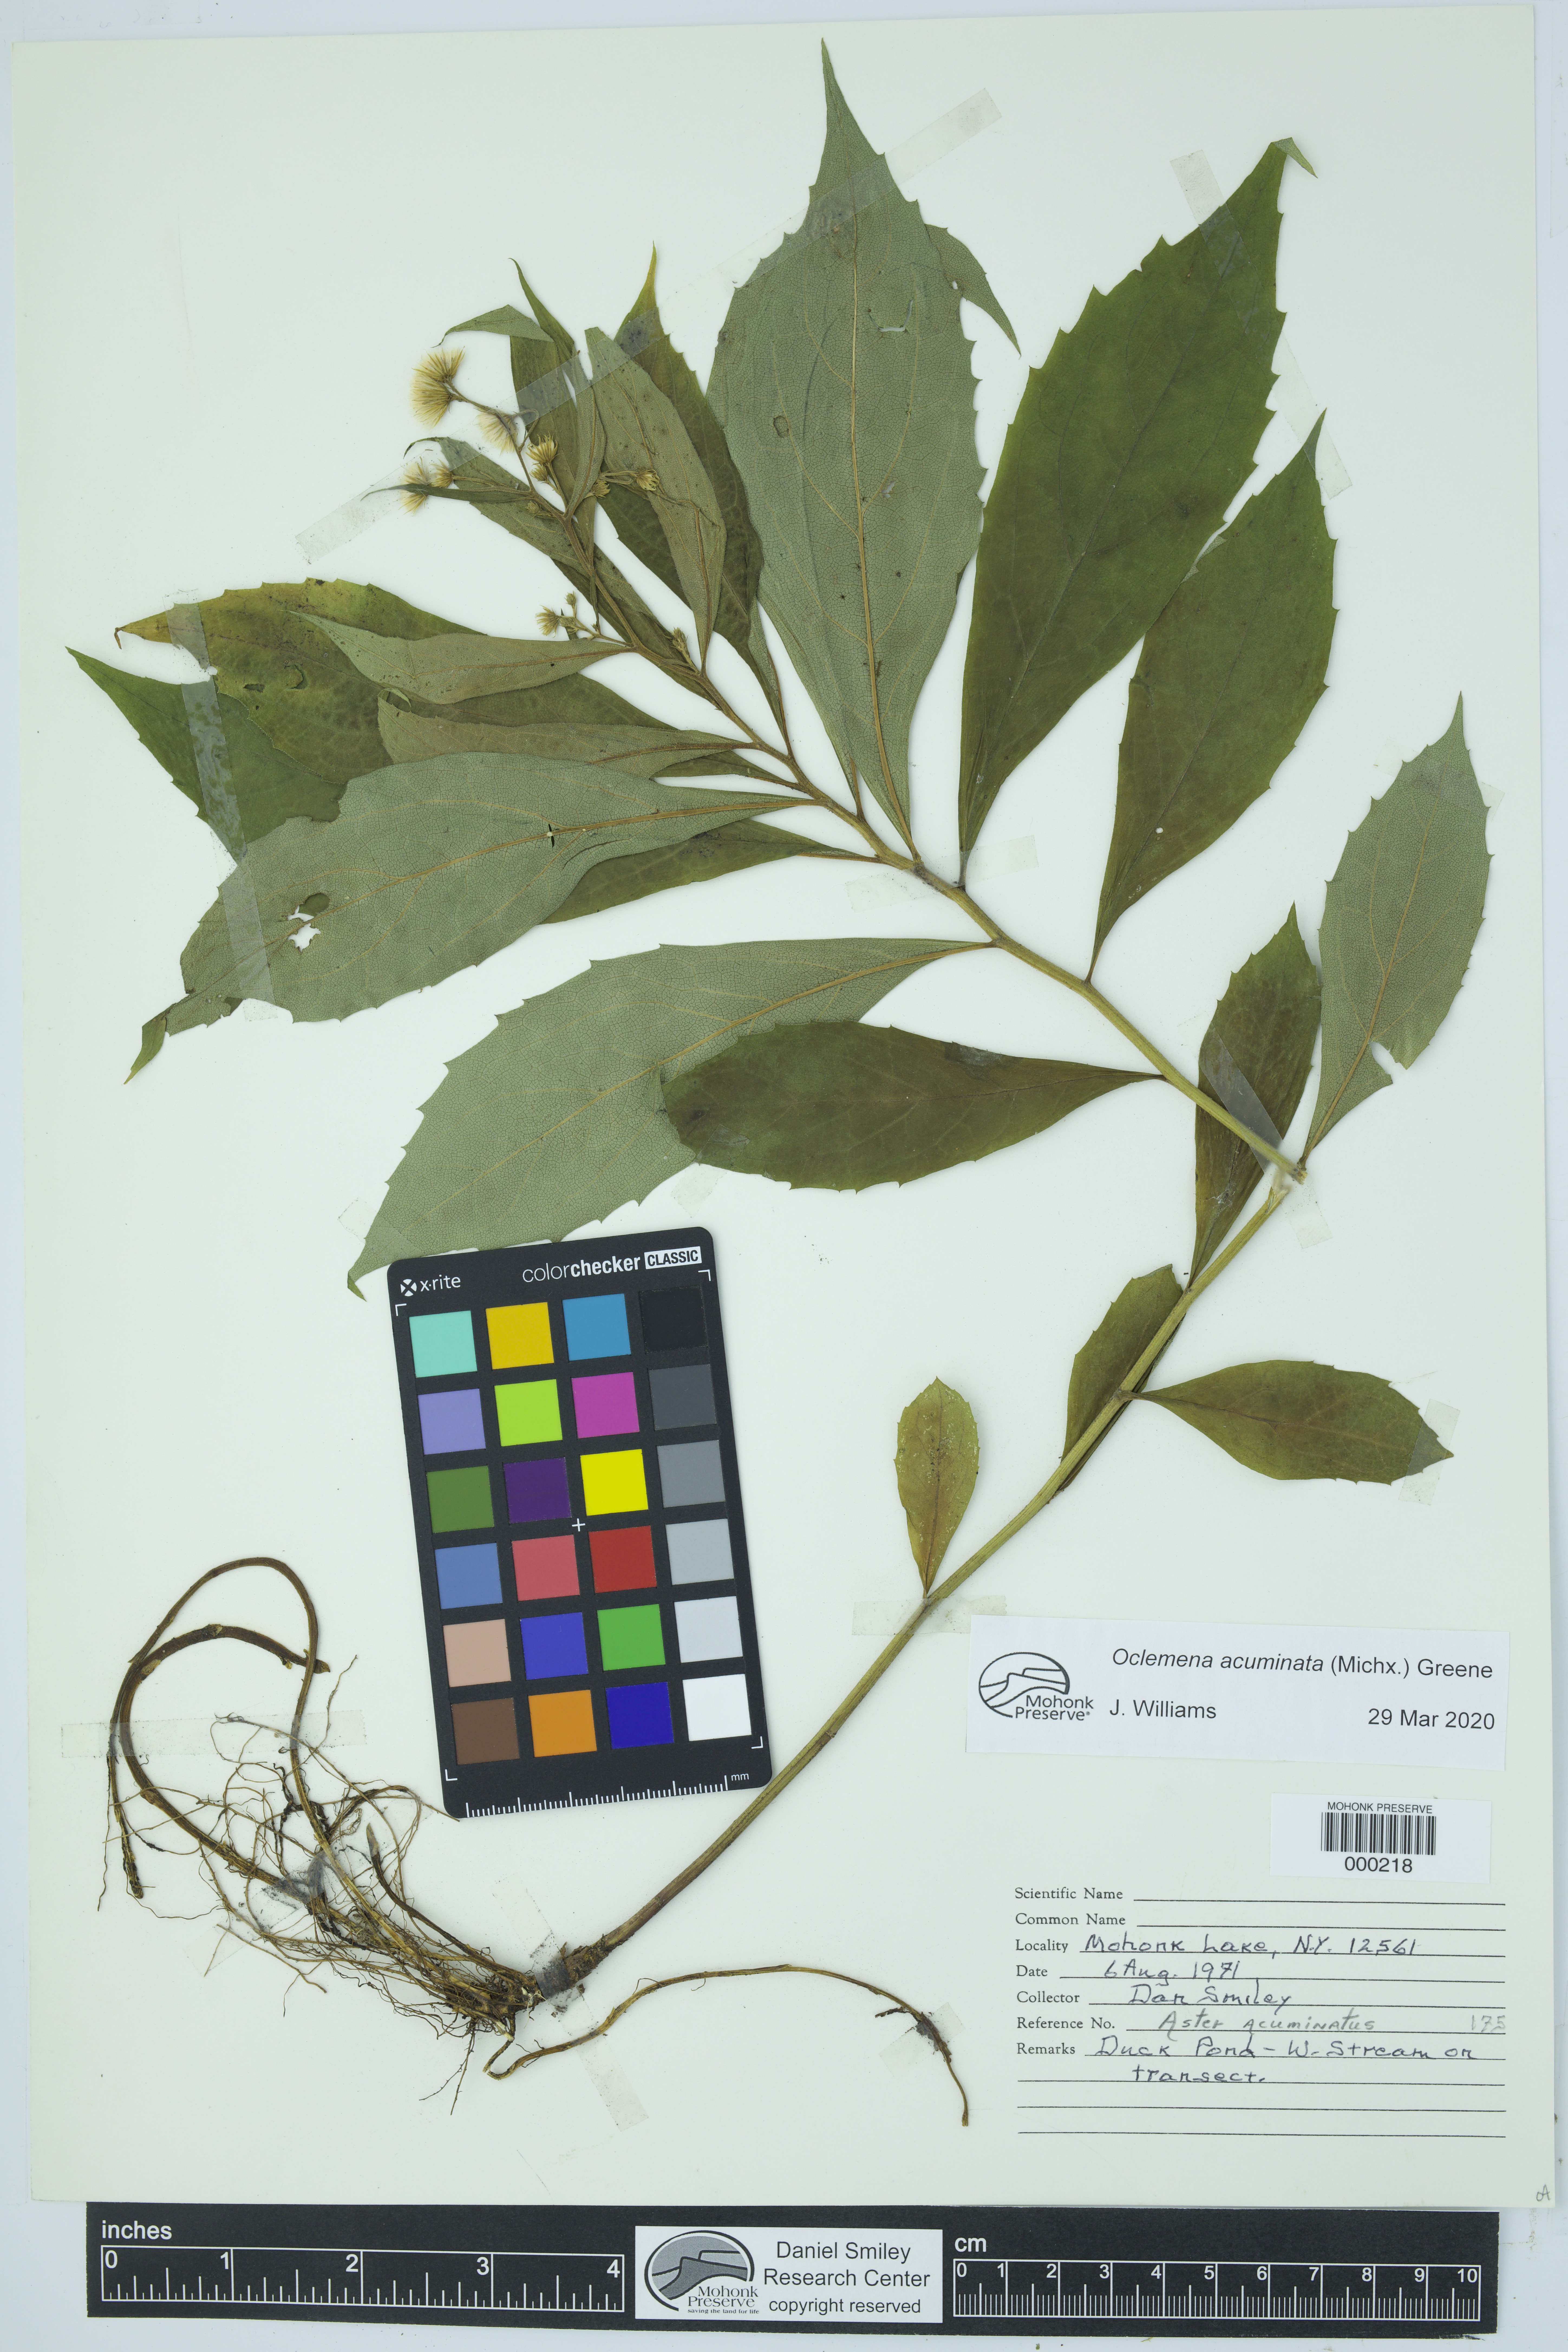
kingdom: Plantae
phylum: Tracheophyta
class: Magnoliopsida
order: Asterales
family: Asteraceae
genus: Oclemena
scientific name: Oclemena acuminata
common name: Mountain aster
